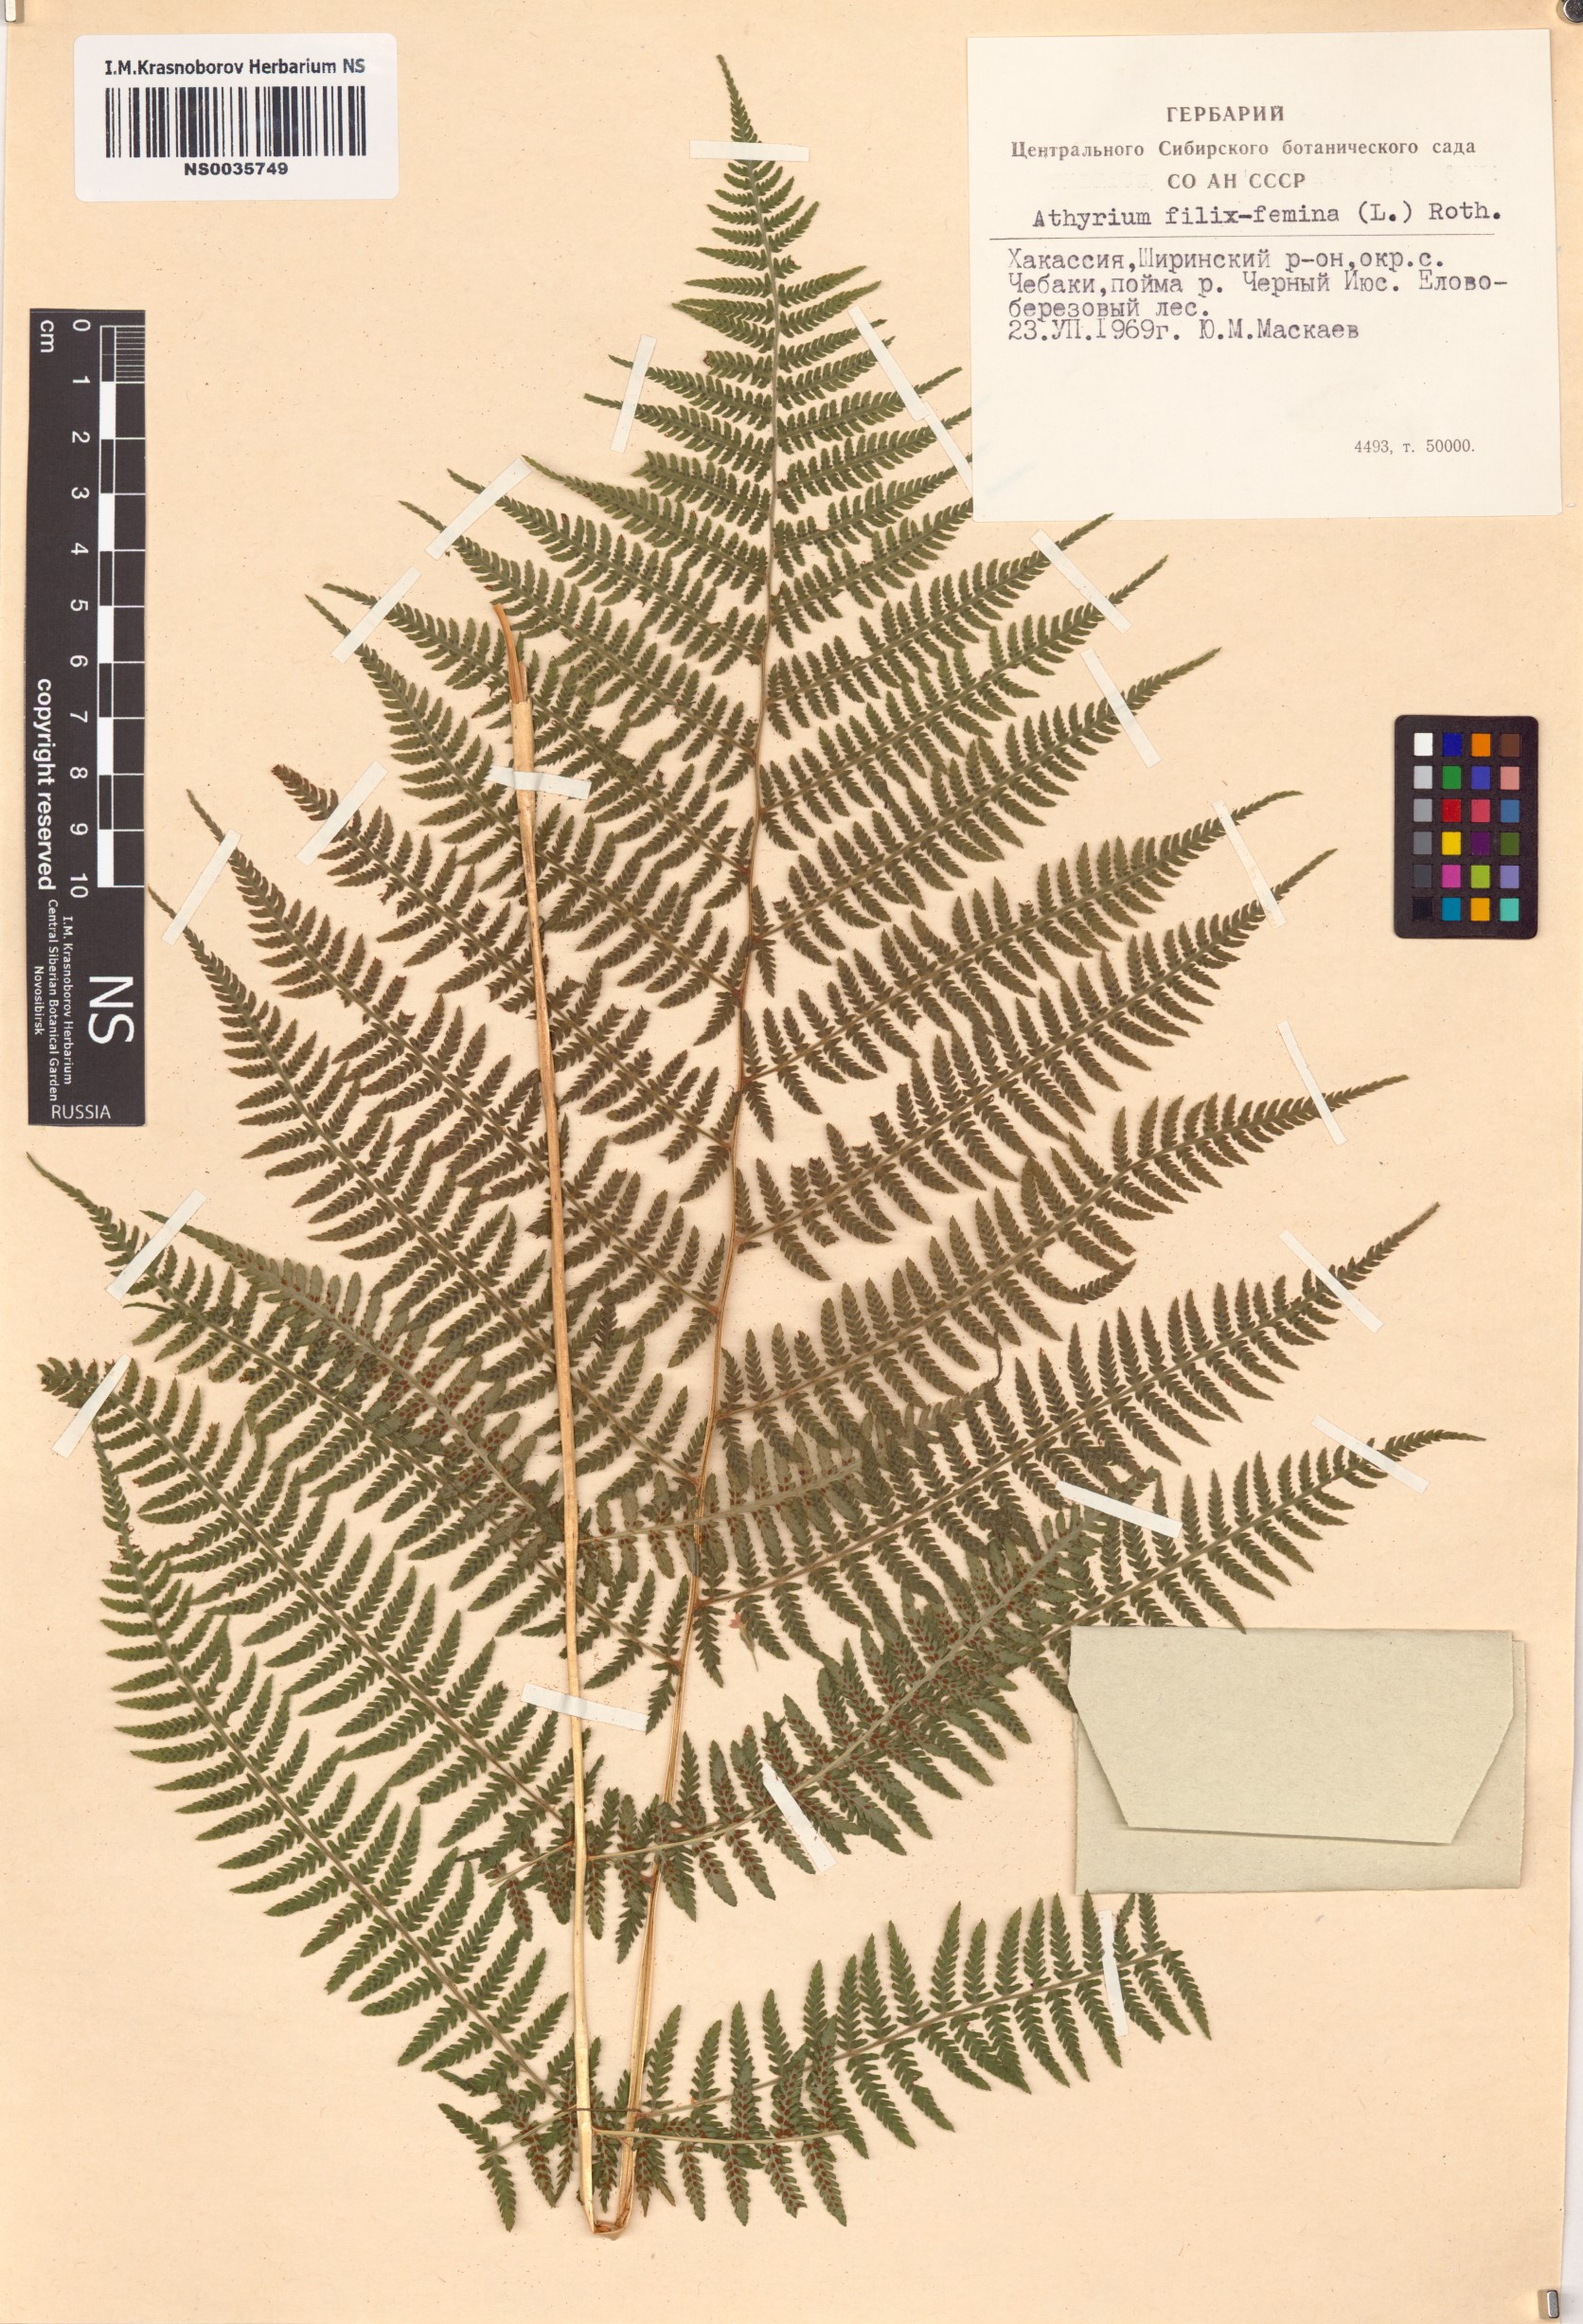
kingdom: Plantae
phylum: Tracheophyta
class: Polypodiopsida
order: Polypodiales
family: Athyriaceae
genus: Athyrium
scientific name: Athyrium filix-femina
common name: Lady fern
